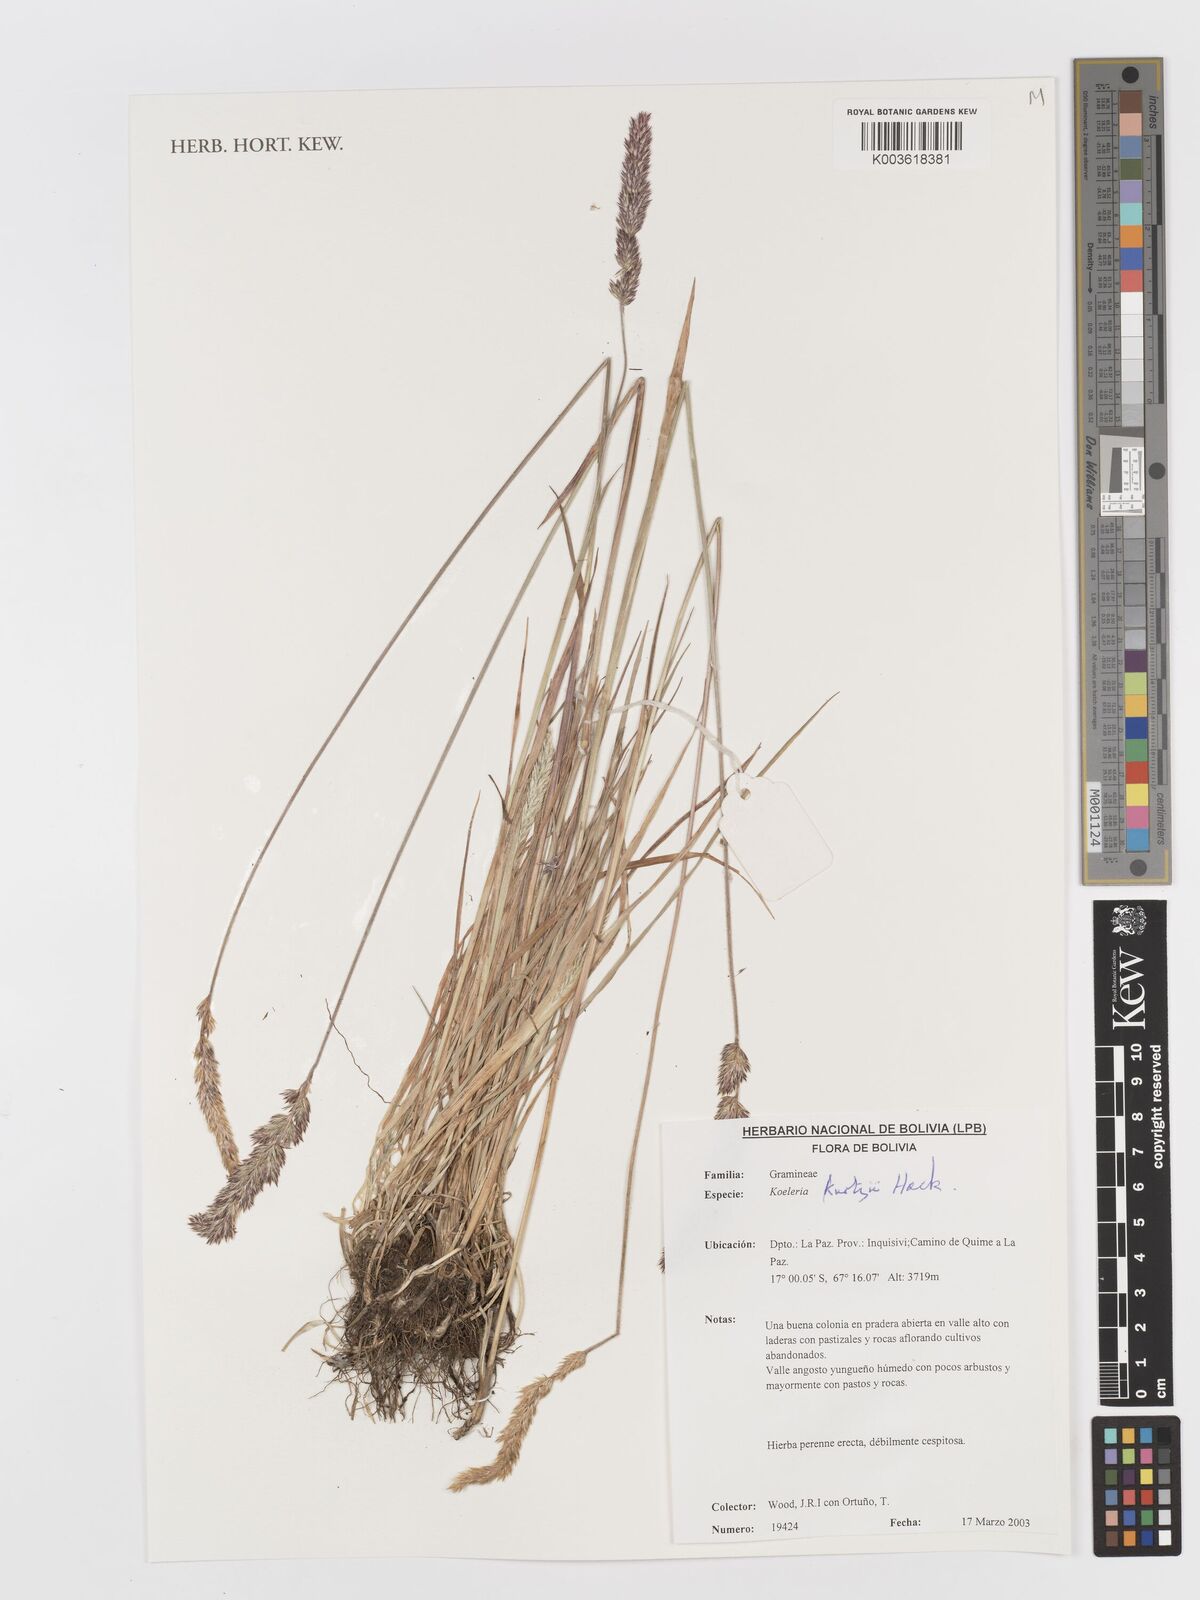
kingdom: Plantae
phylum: Tracheophyta
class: Liliopsida
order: Poales
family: Poaceae
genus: Koeleria
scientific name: Koeleria kurtzii
